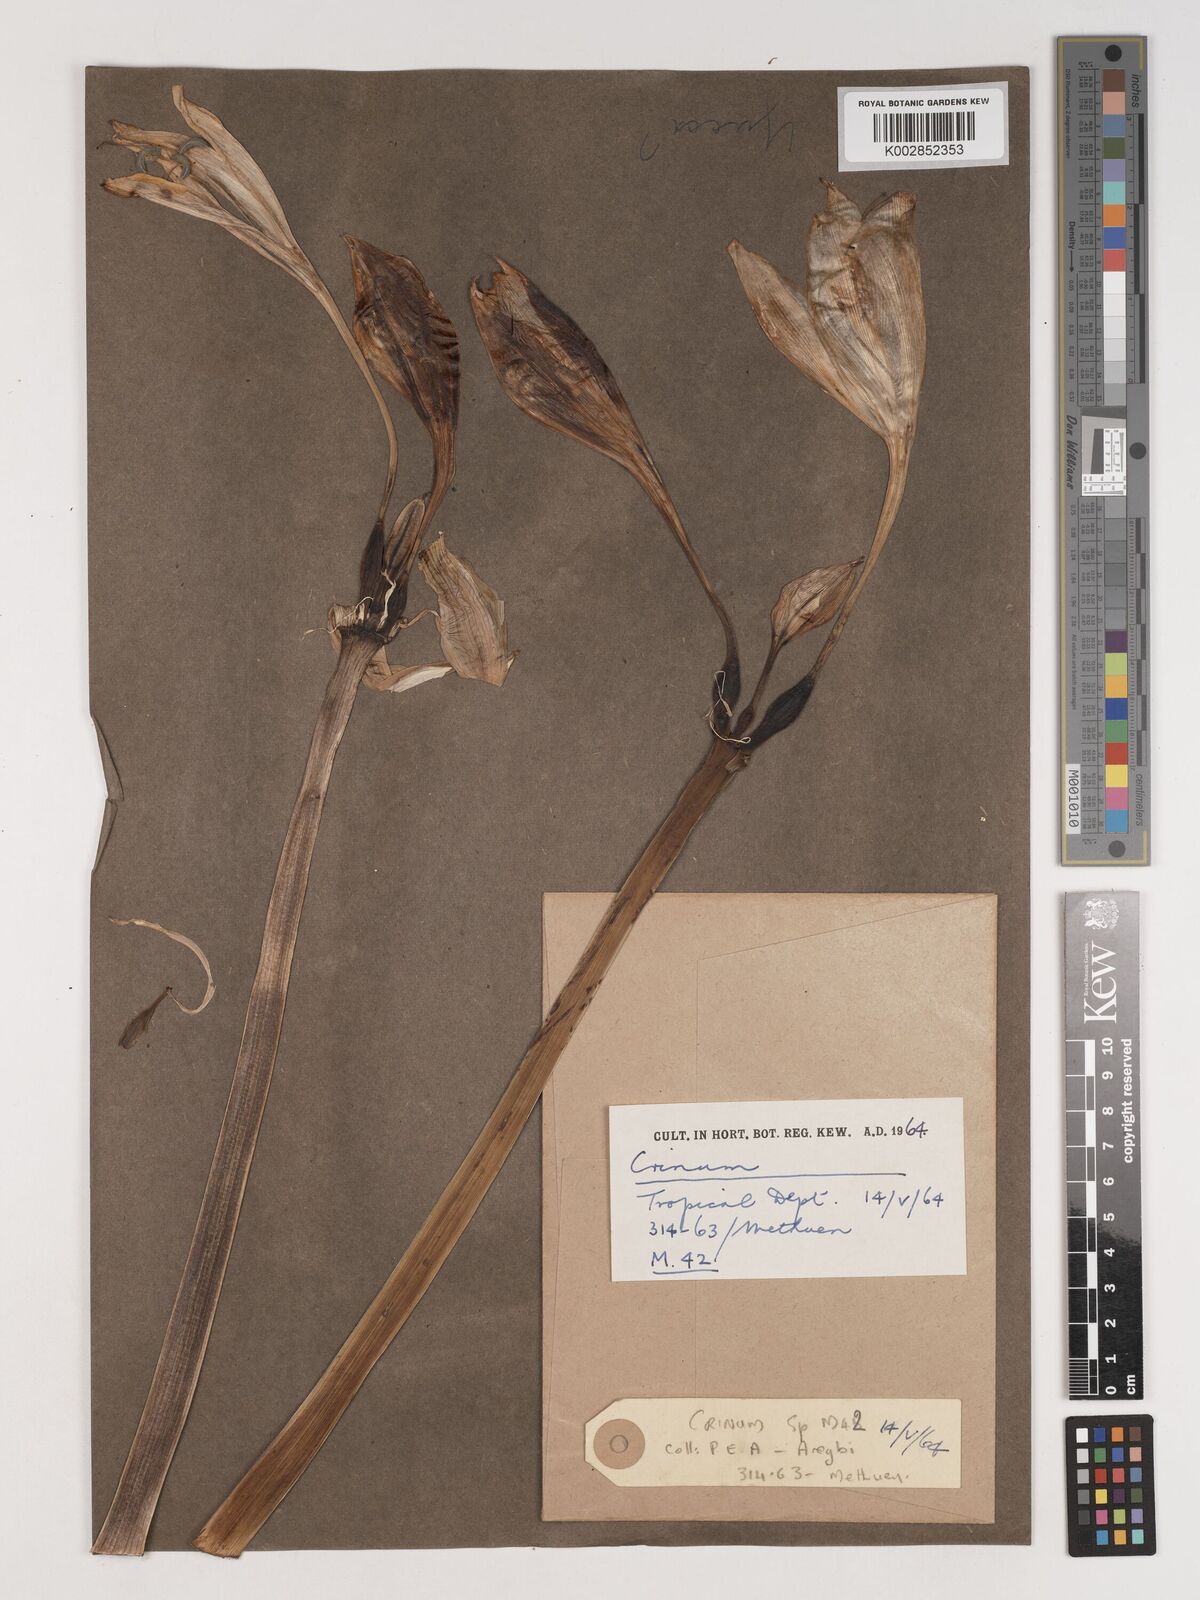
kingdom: Plantae
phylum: Tracheophyta
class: Liliopsida
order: Asparagales
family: Amaryllidaceae
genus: Crinum
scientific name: Crinum
